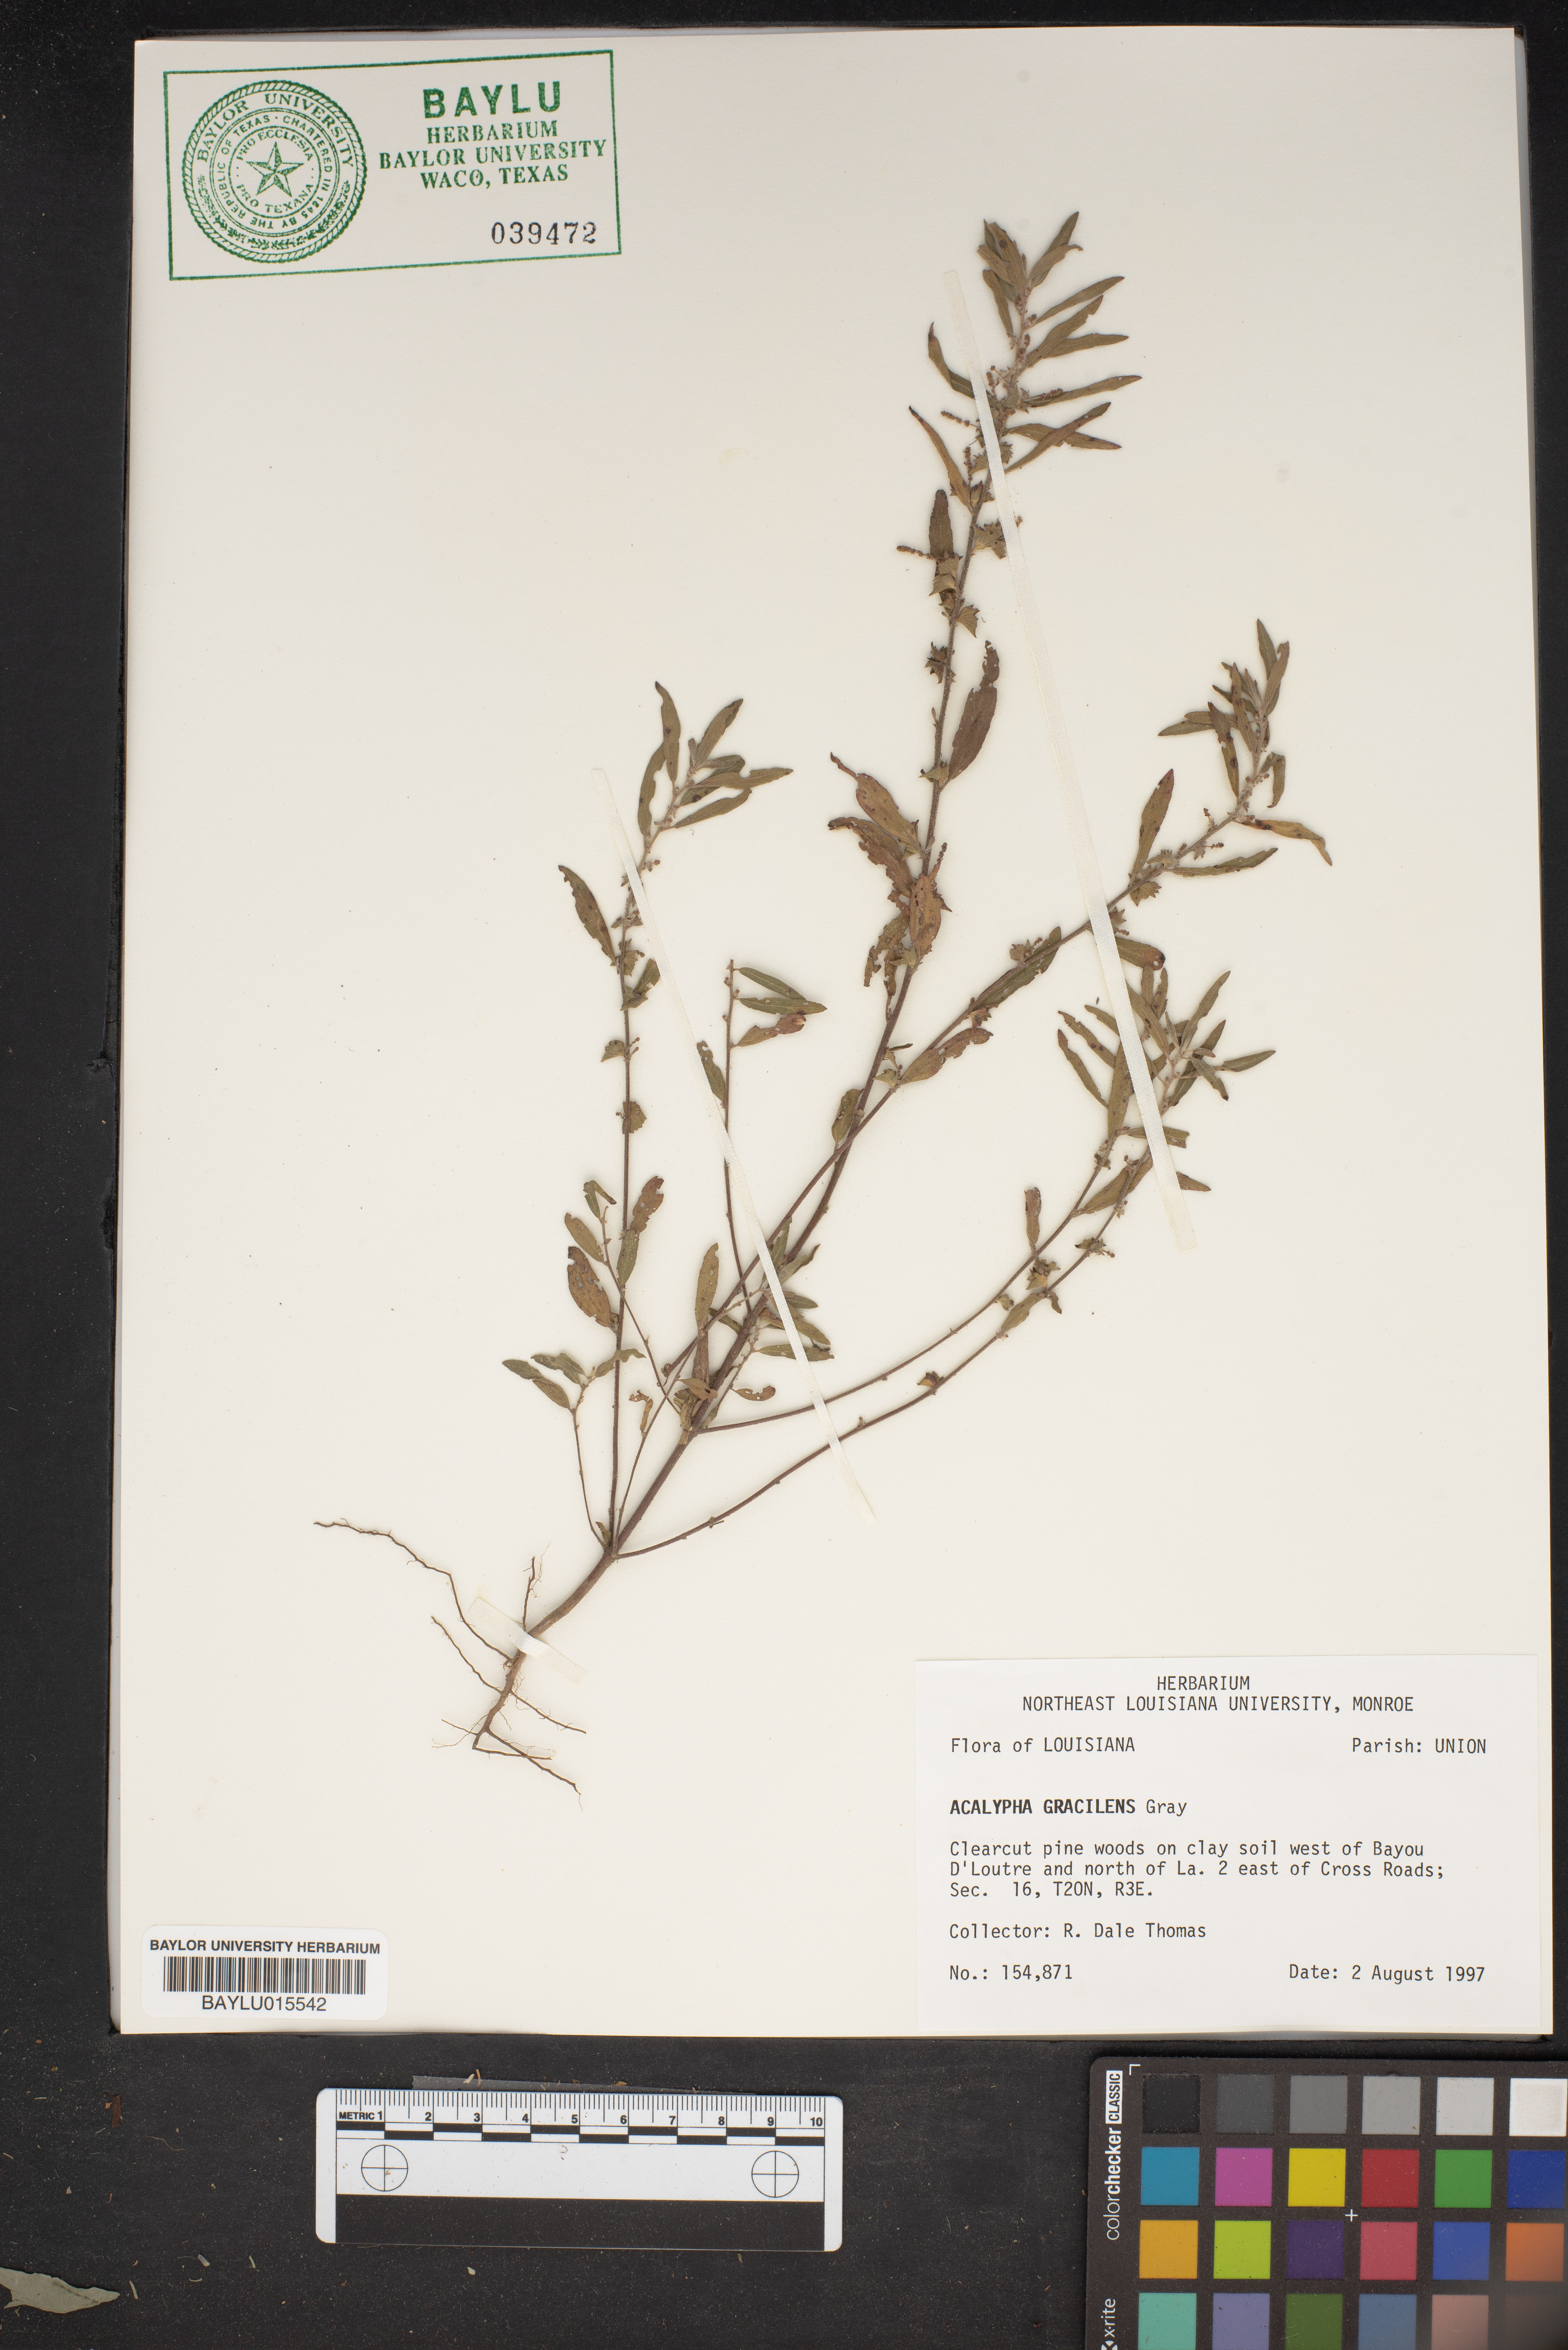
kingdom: Plantae
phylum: Tracheophyta
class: Magnoliopsida
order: Malpighiales
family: Euphorbiaceae
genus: Acalypha
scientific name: Acalypha gracilens
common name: Slender three-seeded mercury
